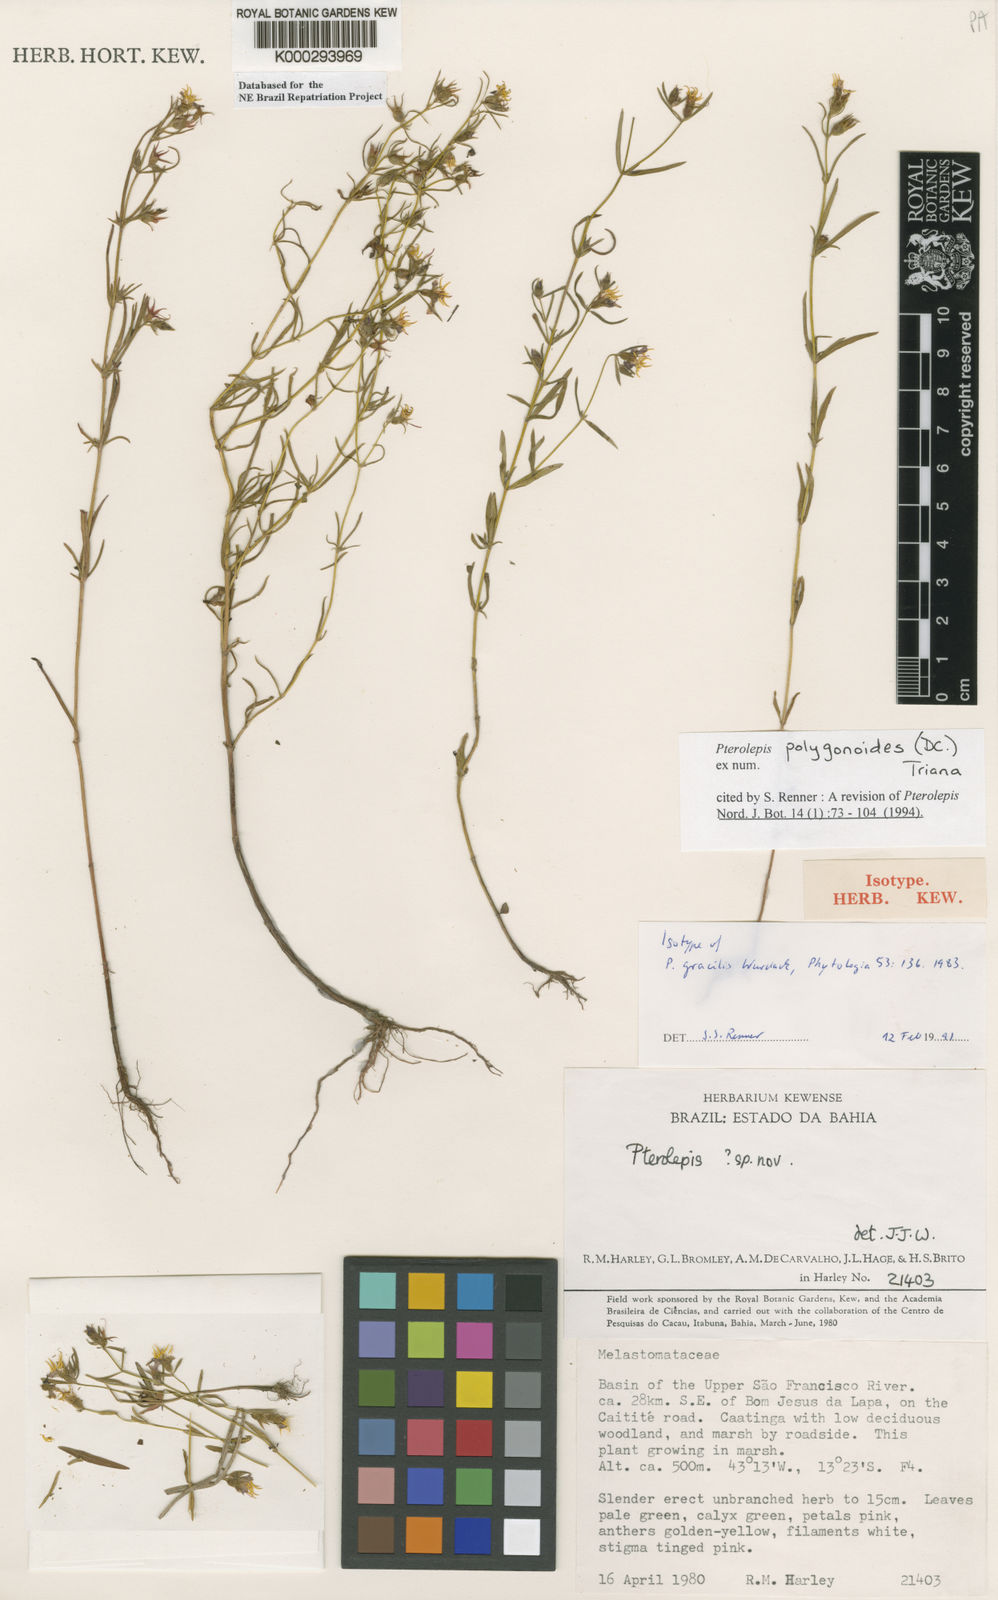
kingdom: Plantae
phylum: Tracheophyta
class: Magnoliopsida
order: Myrtales
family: Melastomataceae
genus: Pterolepis
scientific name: Pterolepis polygonoides
